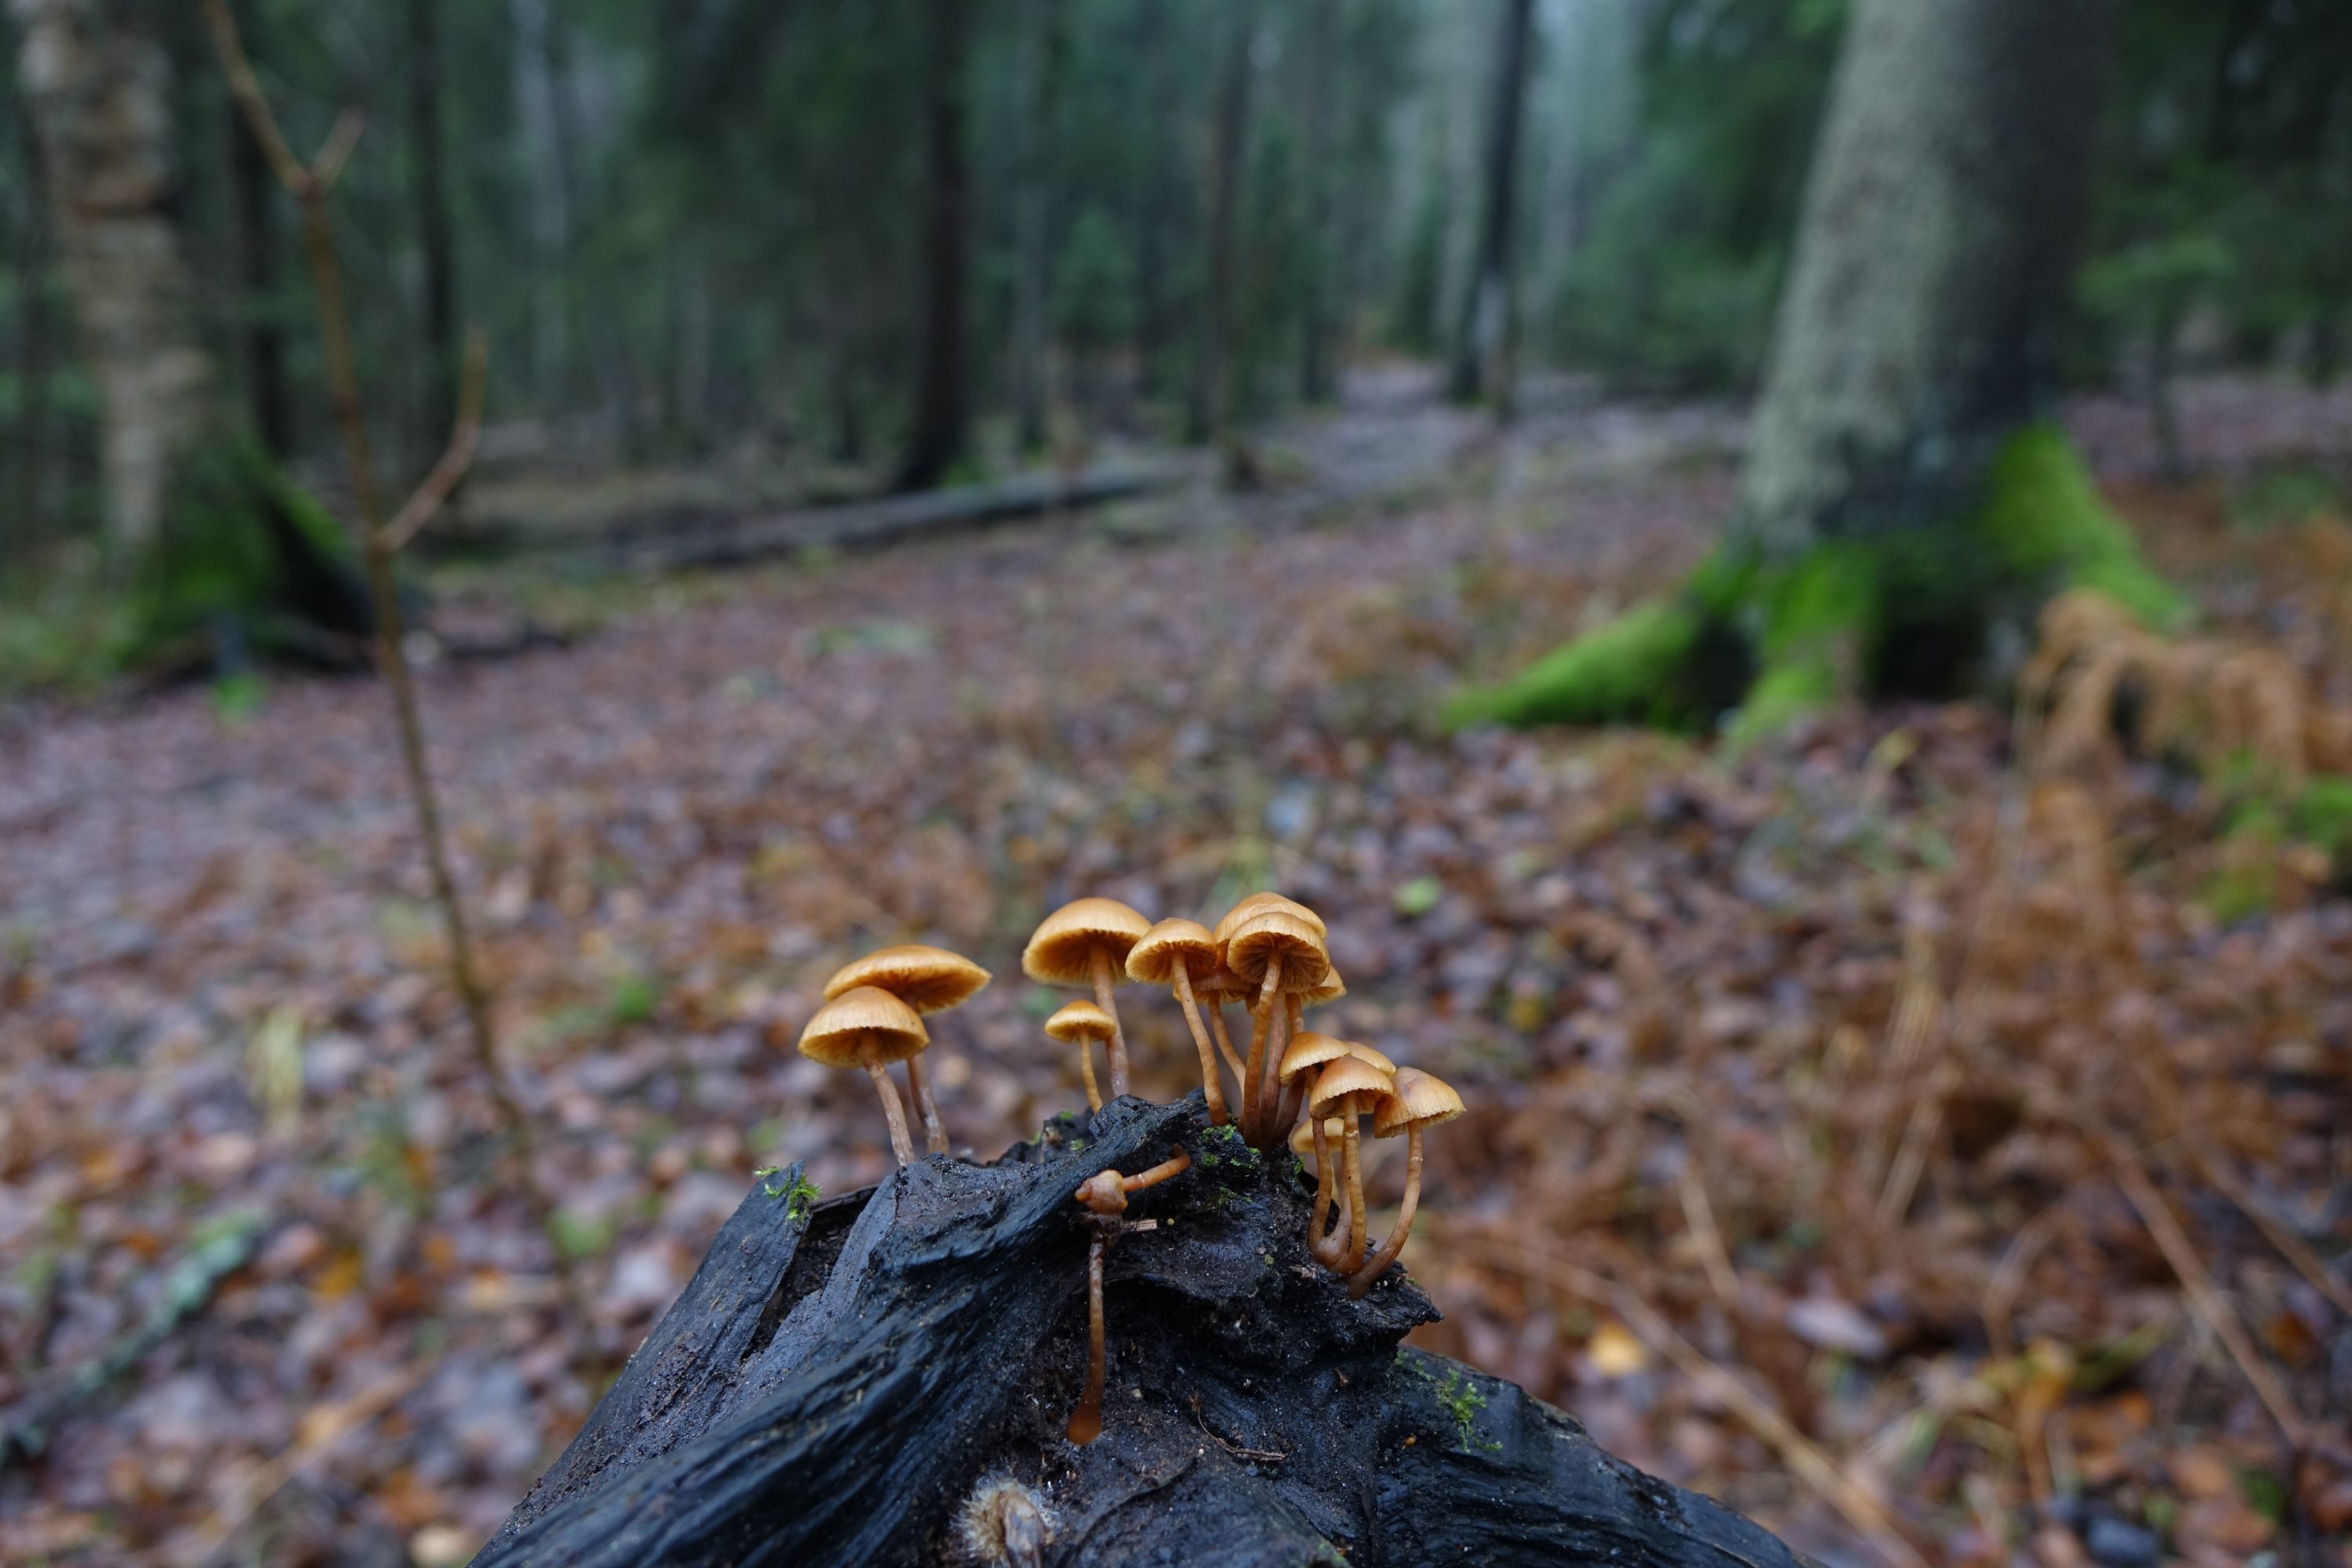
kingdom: Fungi
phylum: Basidiomycota
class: Agaricomycetes
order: Agaricales
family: Hymenogastraceae
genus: Galerina
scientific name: Galerina marginata
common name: Funeral bell
